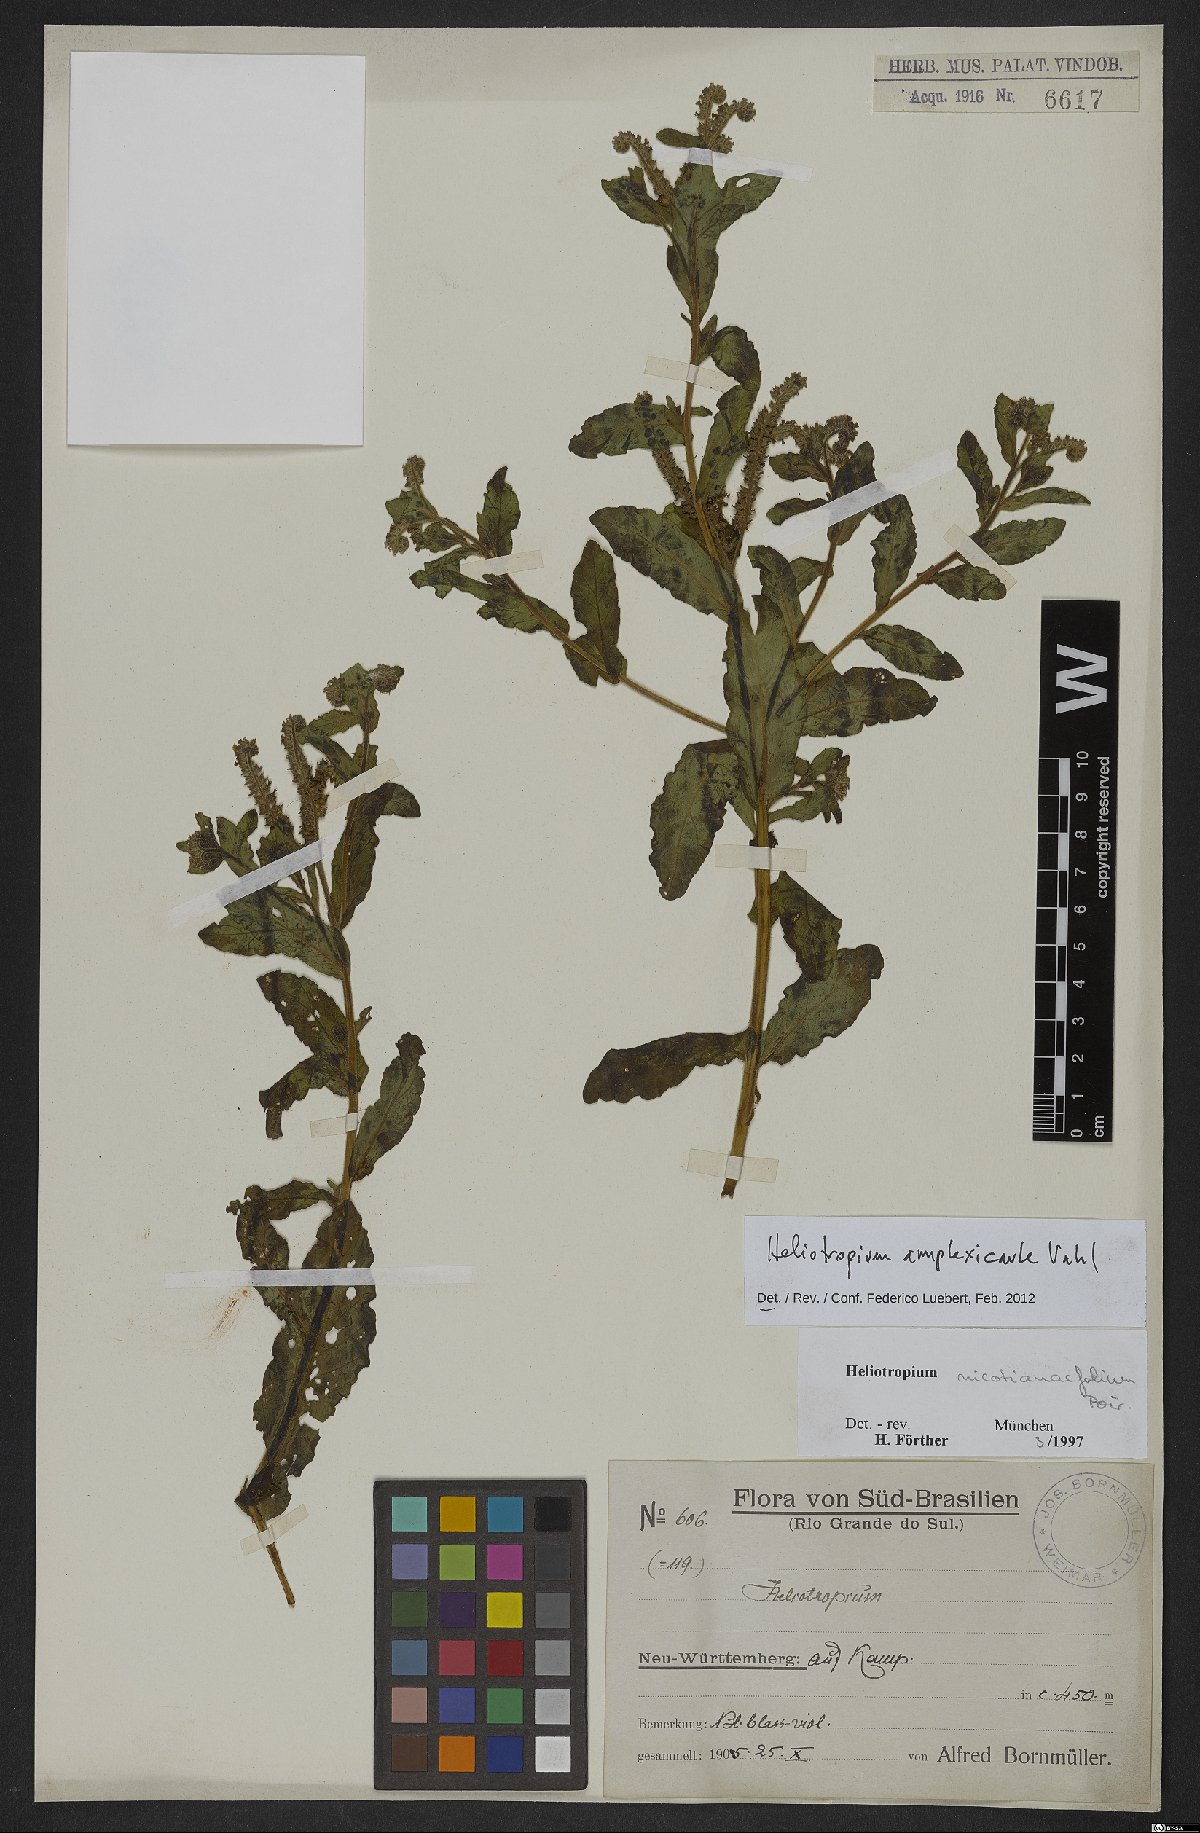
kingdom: Plantae
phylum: Tracheophyta
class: Magnoliopsida
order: Boraginales
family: Heliotropiaceae
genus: Heliotropium
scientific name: Heliotropium amplexicaule
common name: Clasping heliotrope
